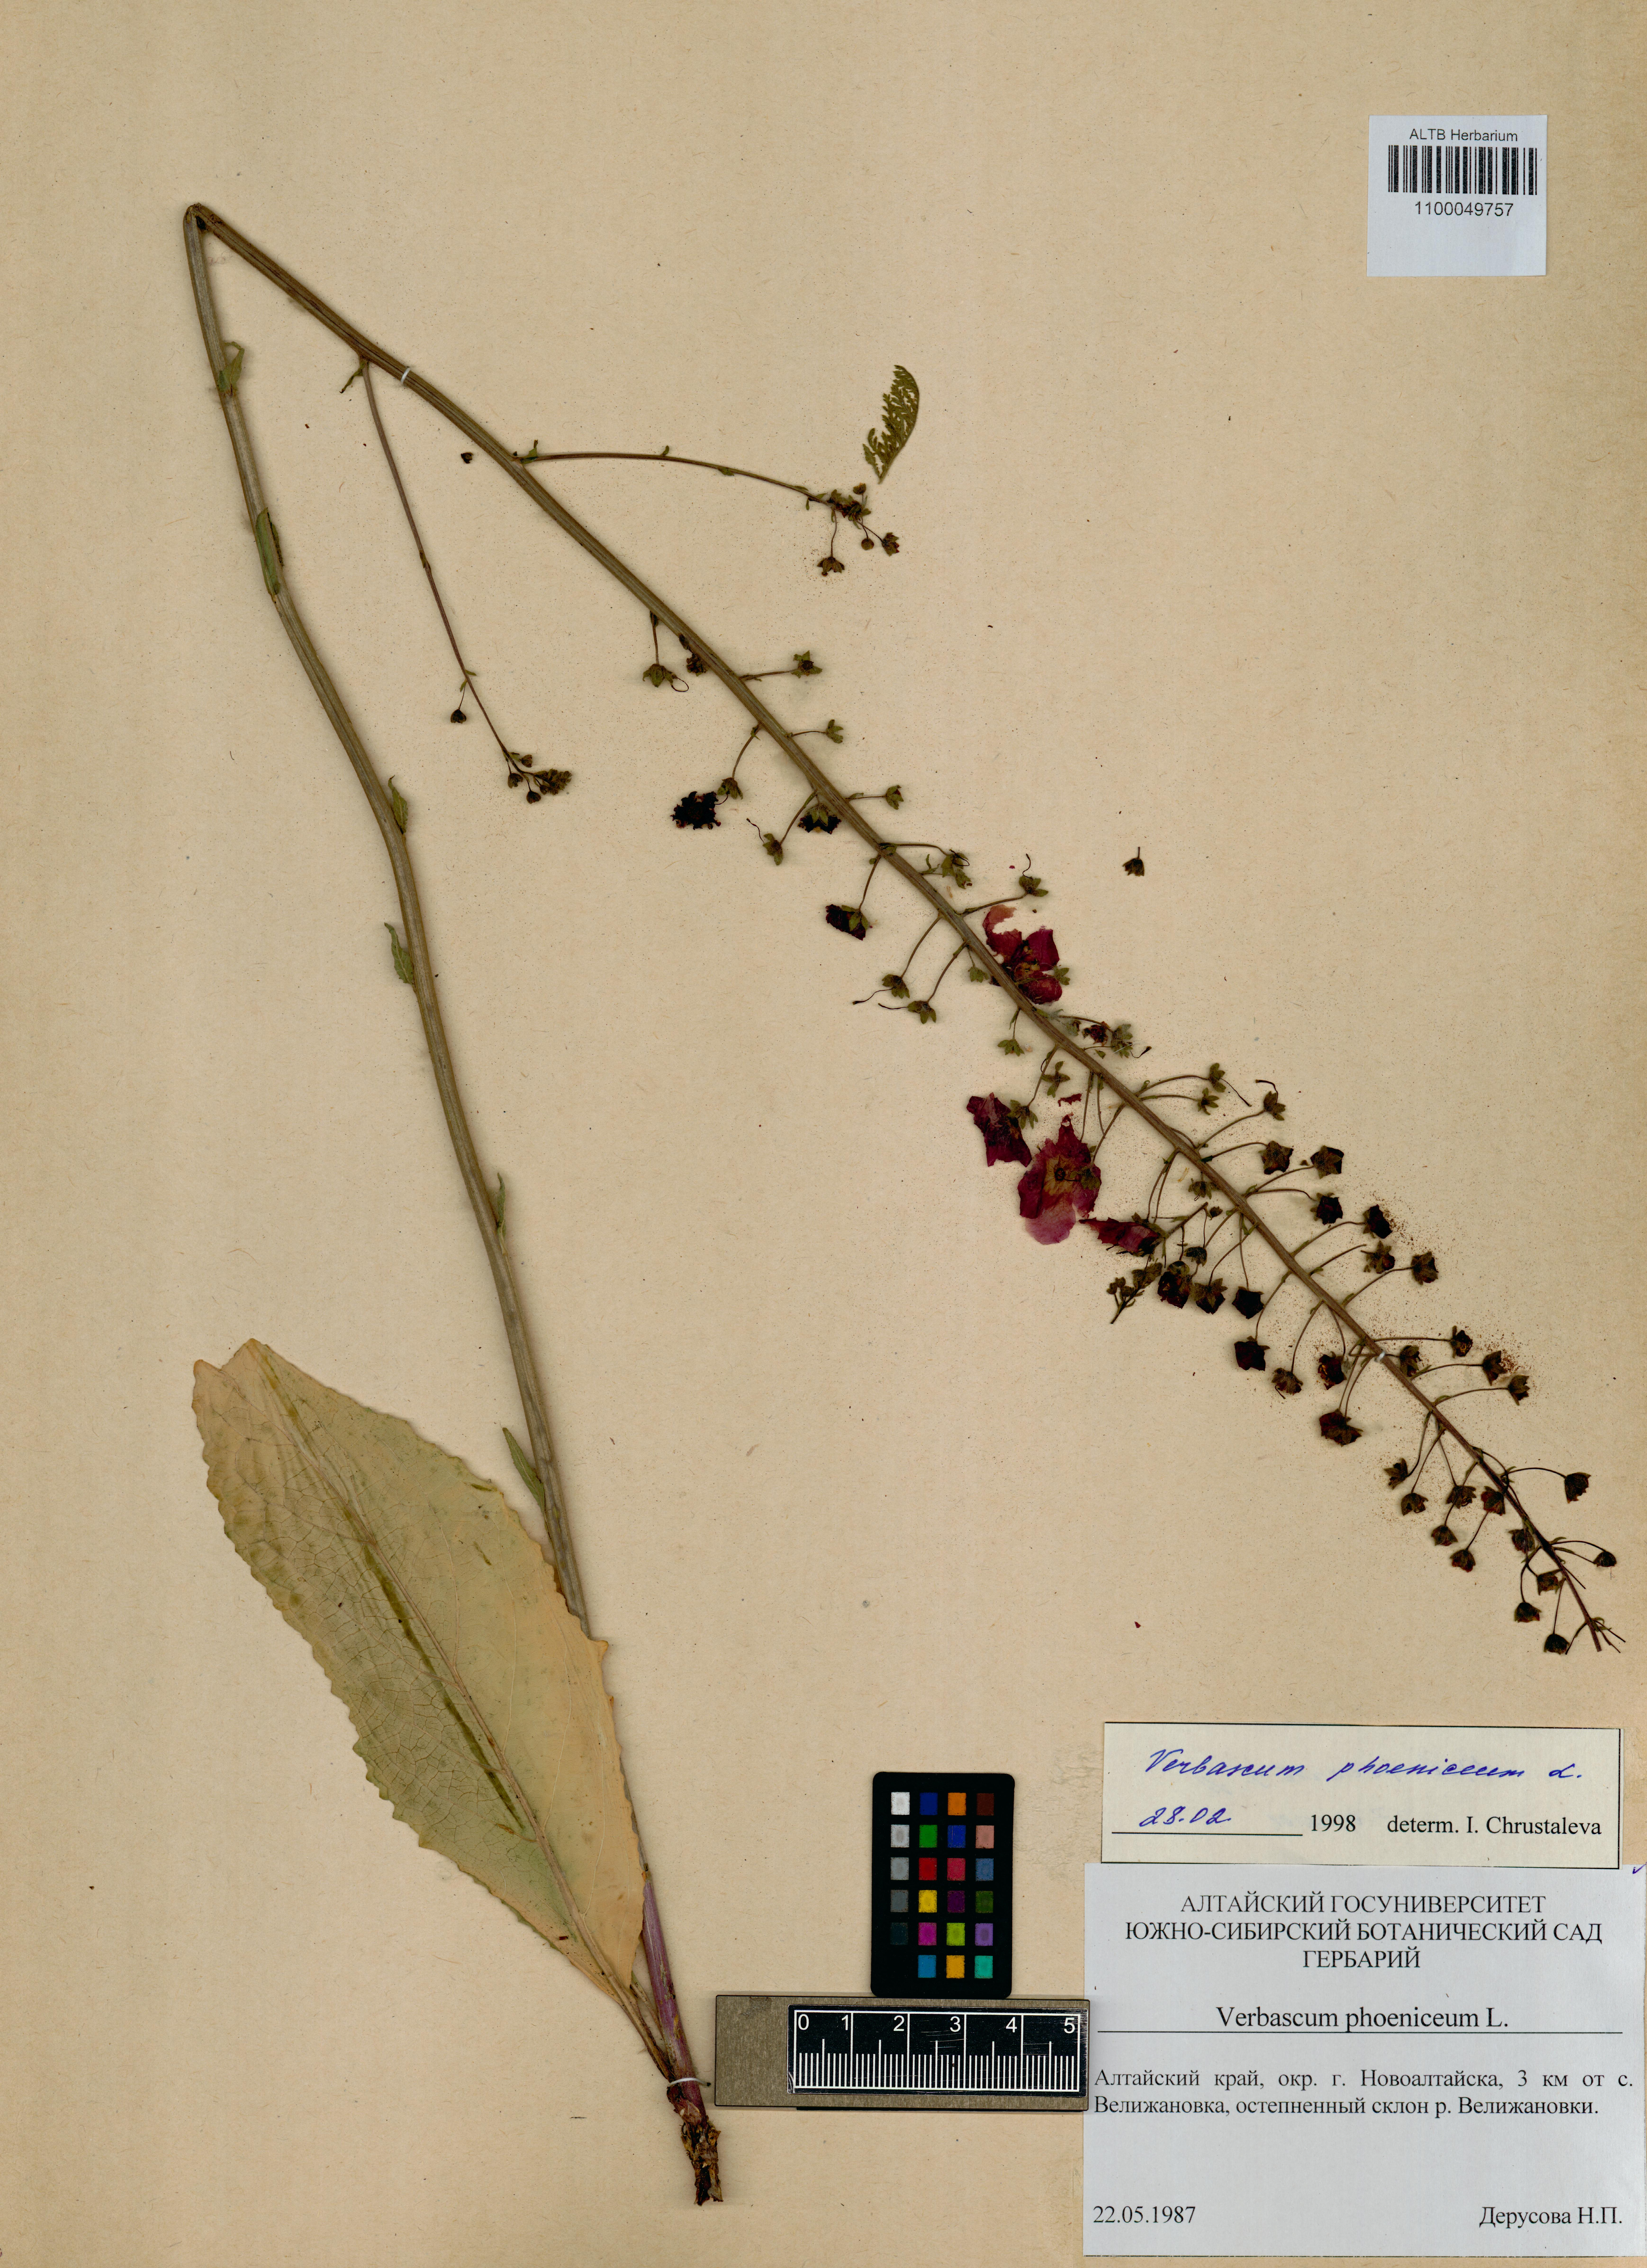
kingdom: Plantae
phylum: Tracheophyta
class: Magnoliopsida
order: Lamiales
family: Scrophulariaceae
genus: Verbascum
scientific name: Verbascum phoeniceum
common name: Purple mullein
